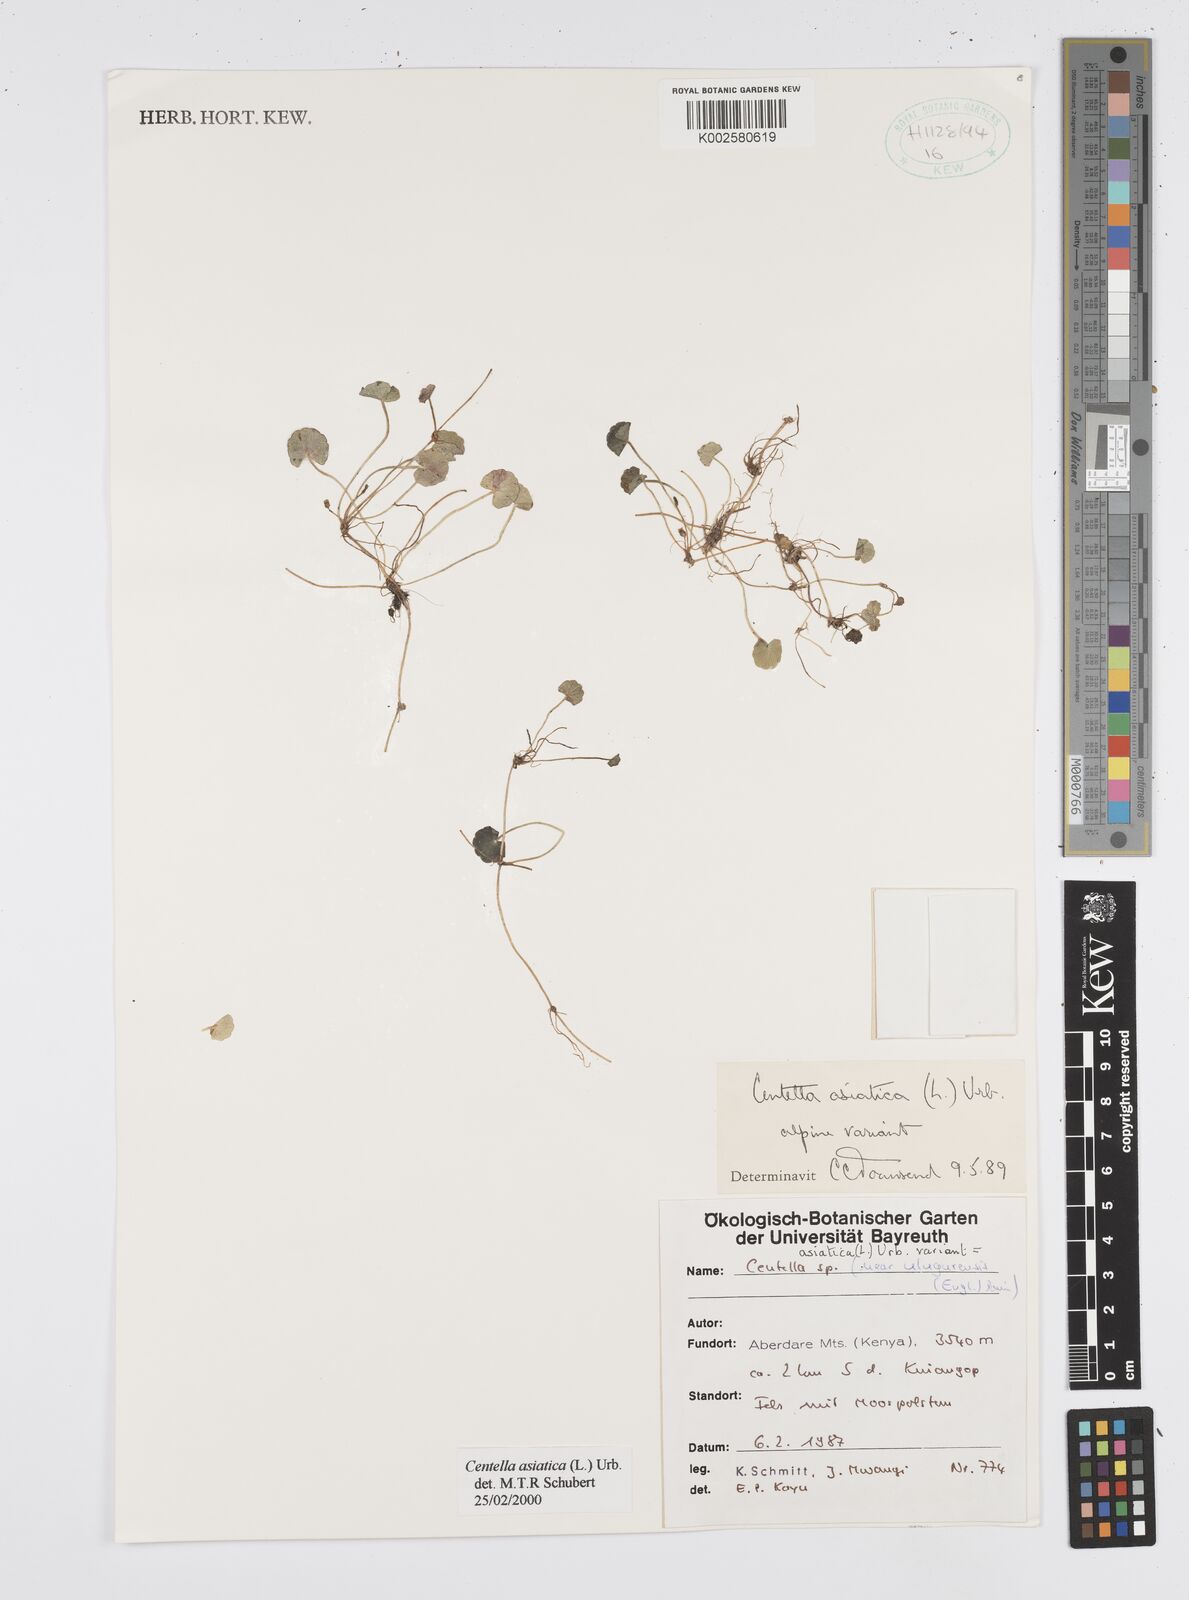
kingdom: Plantae
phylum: Tracheophyta
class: Magnoliopsida
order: Apiales
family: Apiaceae
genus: Centella
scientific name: Centella asiatica
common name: Spadeleaf
